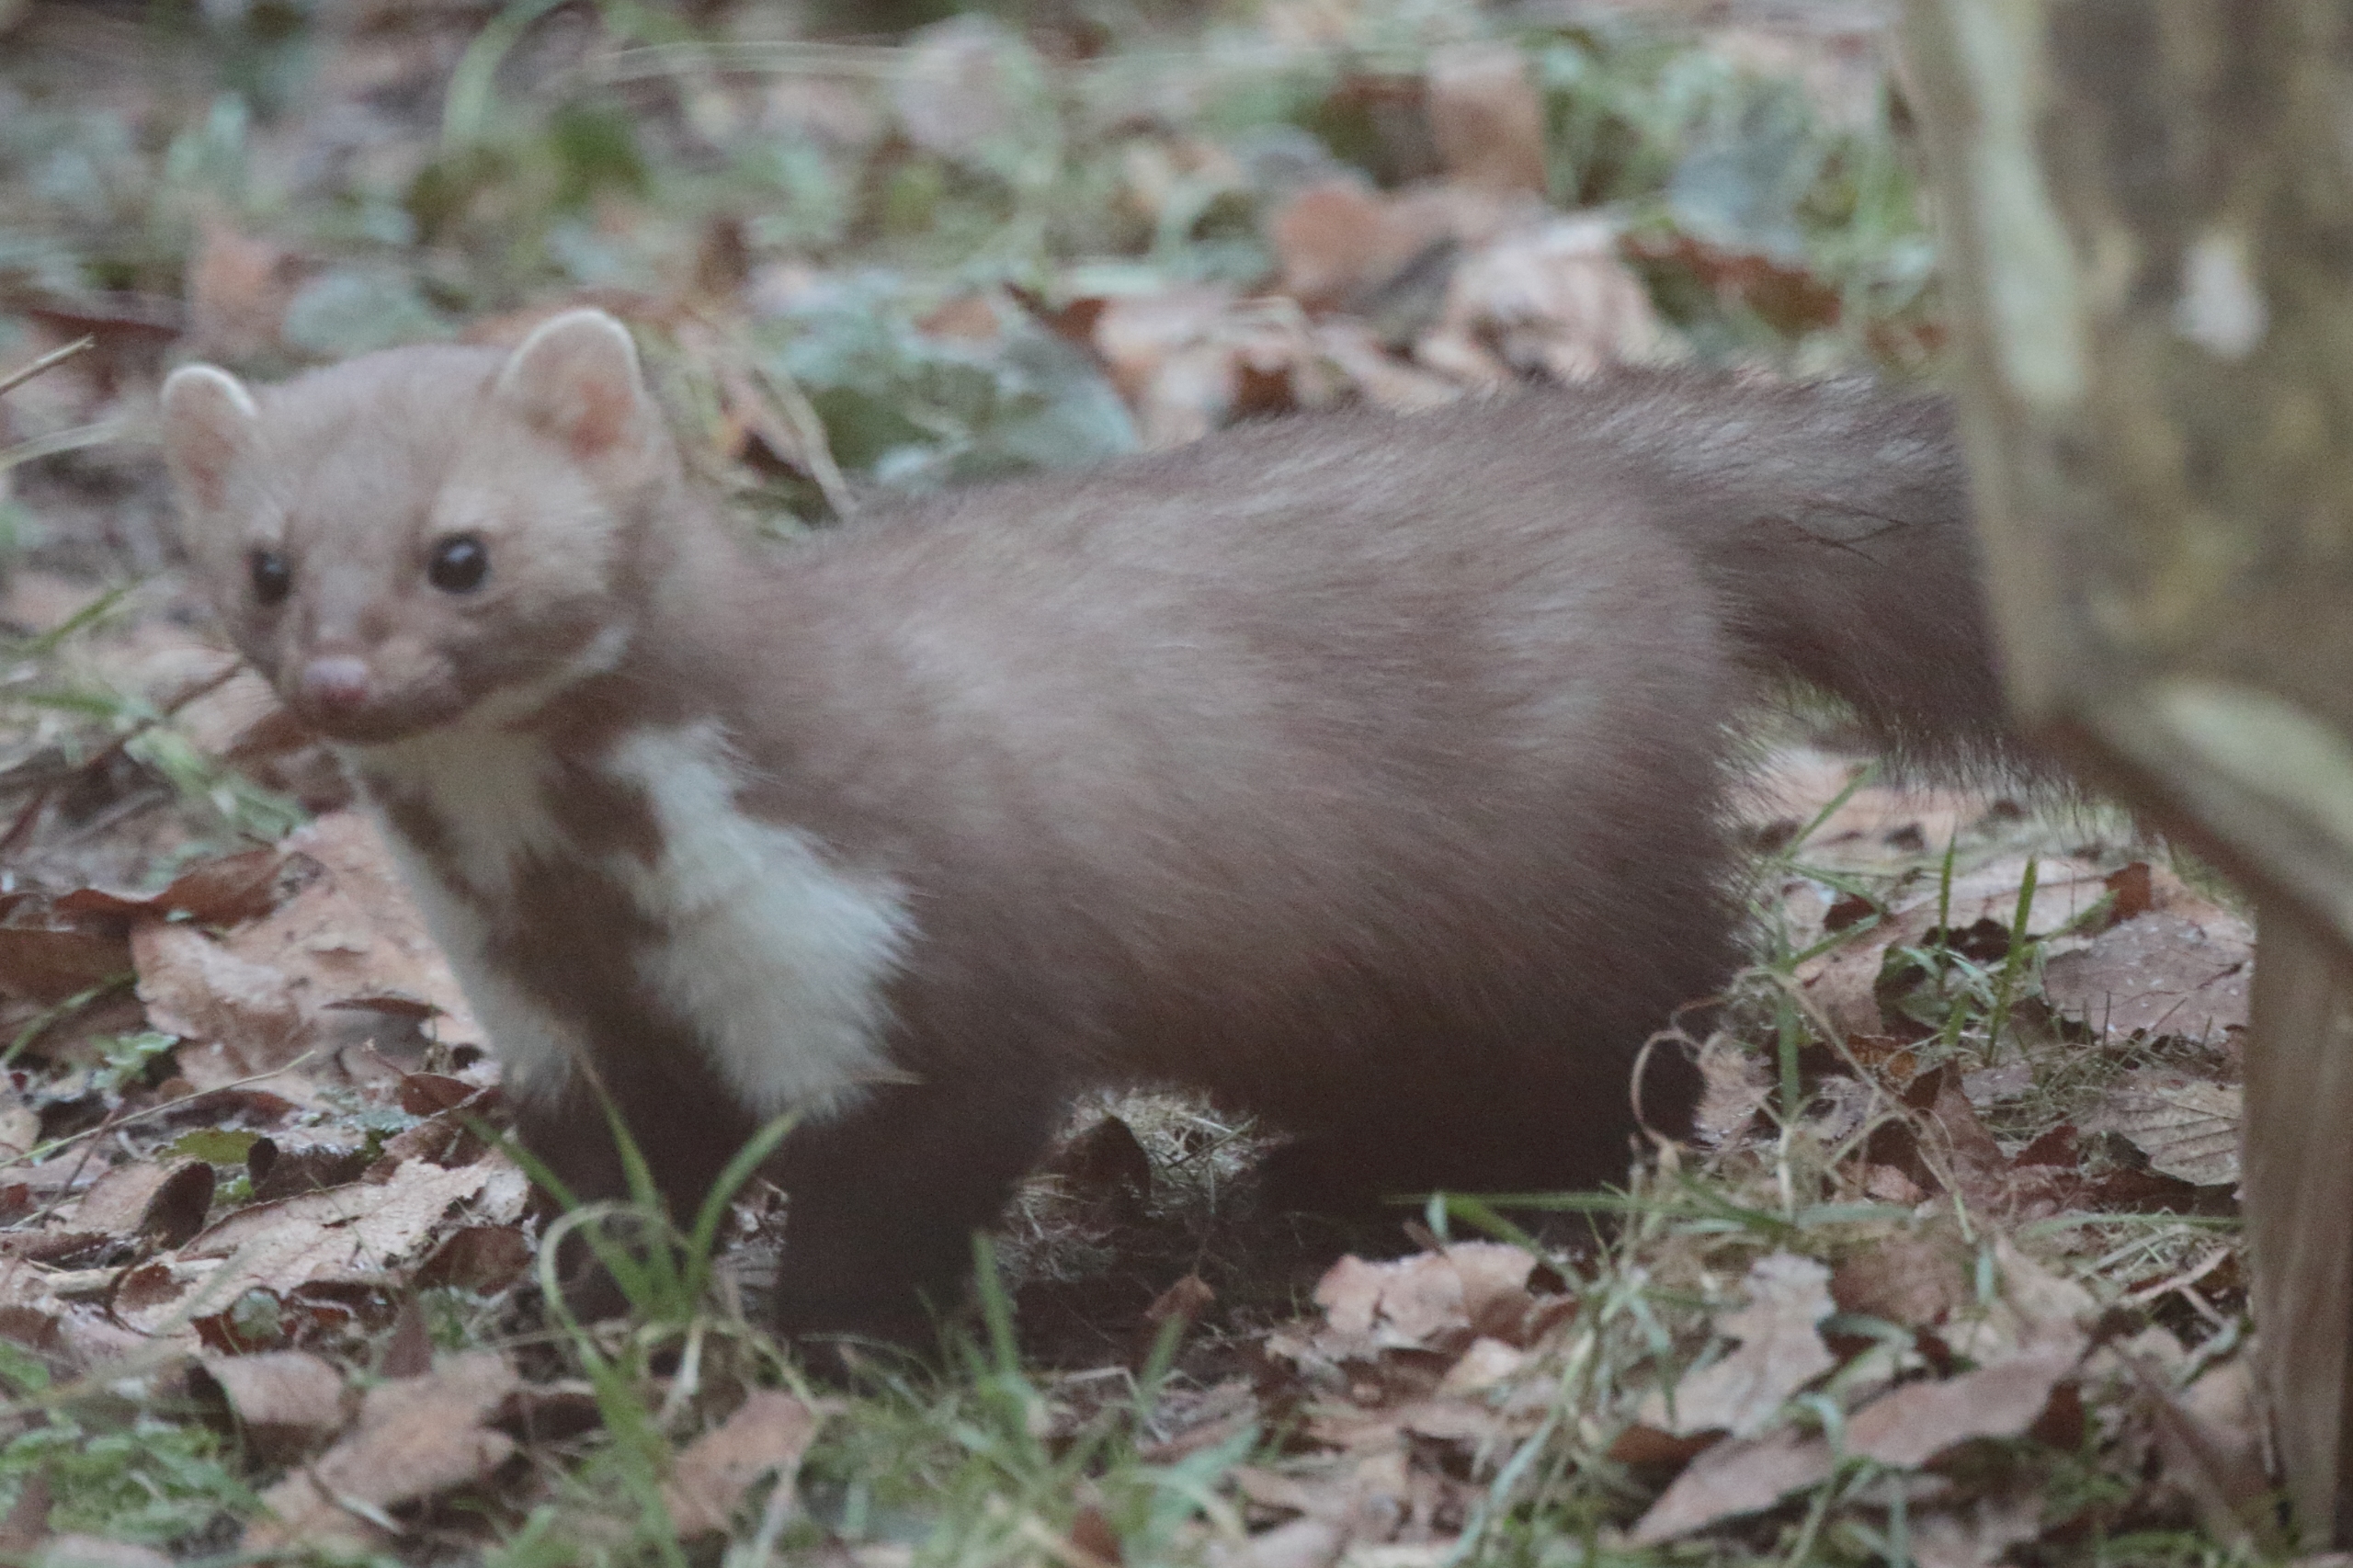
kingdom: Animalia
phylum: Chordata
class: Mammalia
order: Carnivora
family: Mustelidae
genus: Martes
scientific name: Martes foina
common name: Husmår
